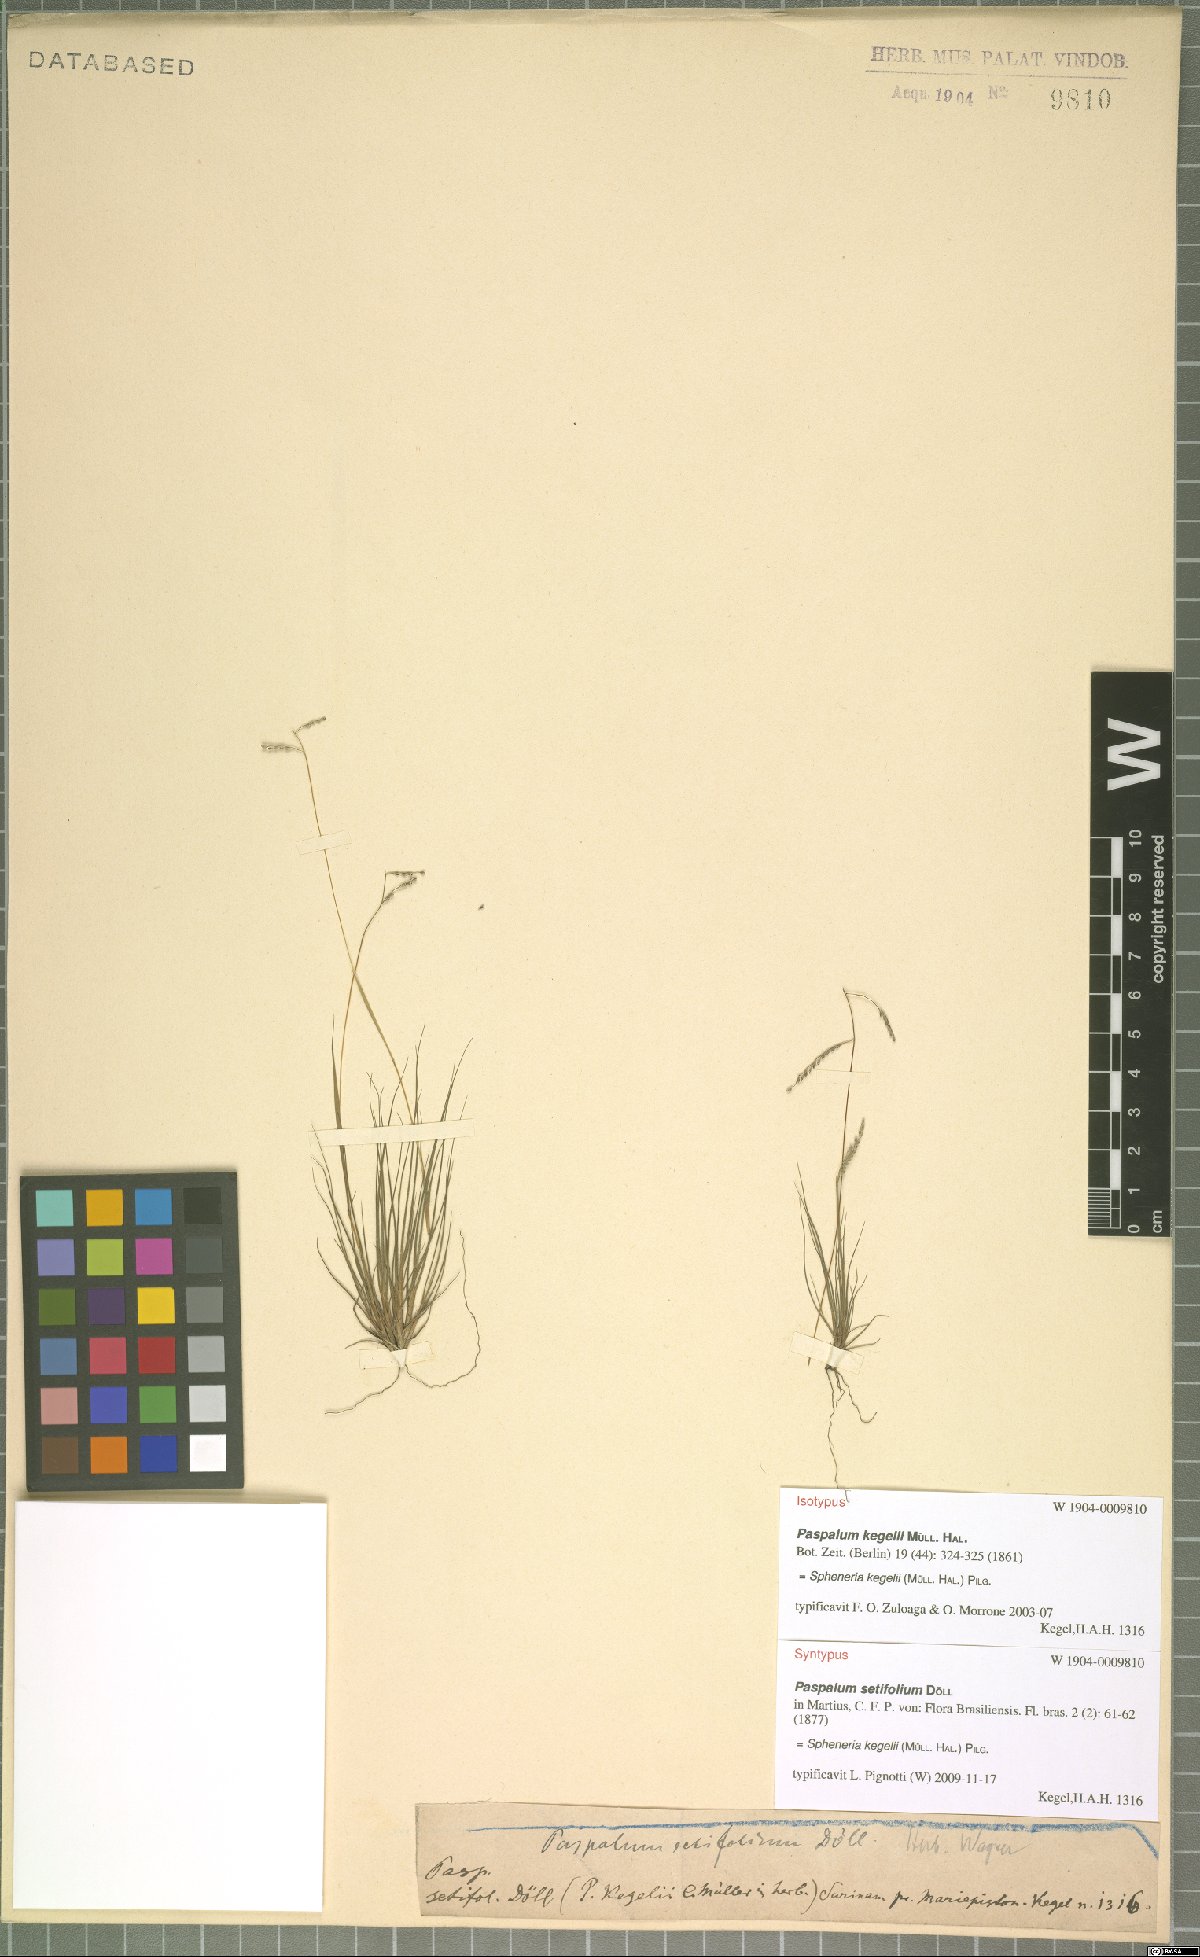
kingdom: Plantae
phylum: Tracheophyta
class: Liliopsida
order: Poales
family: Poaceae
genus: Spheneria
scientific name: Spheneria kegelii
